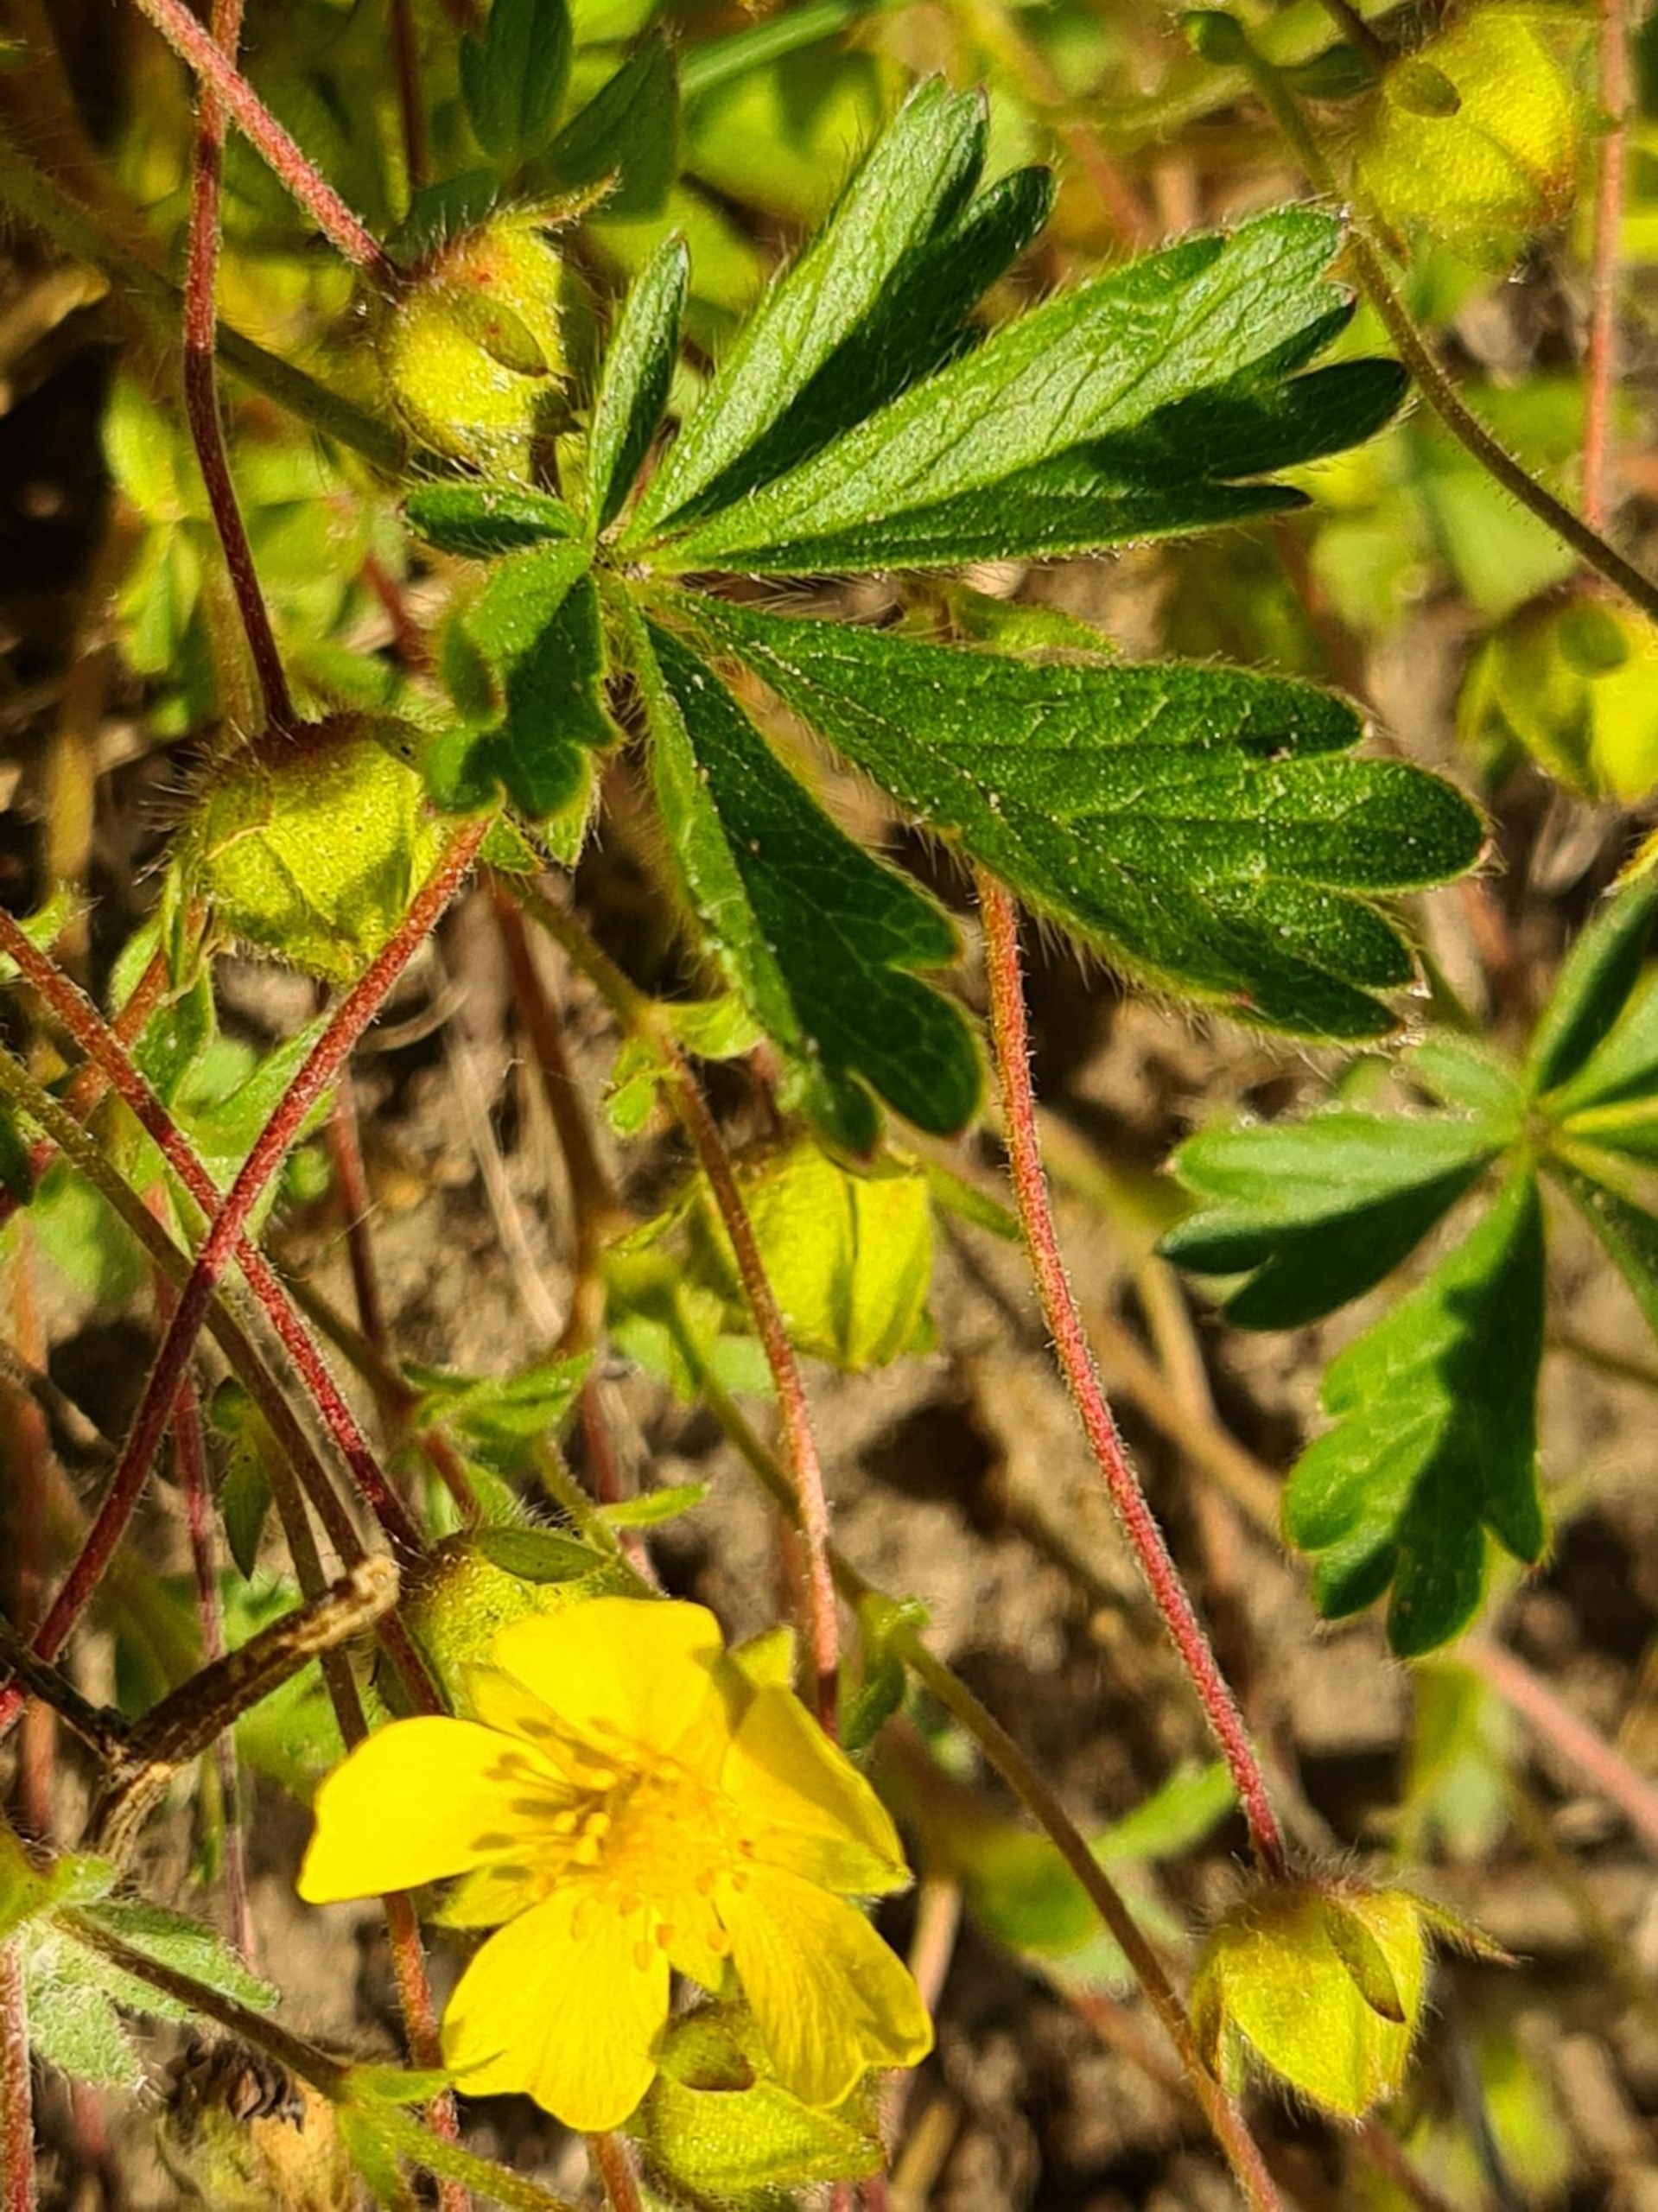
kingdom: Plantae
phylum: Tracheophyta
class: Magnoliopsida
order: Rosales
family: Rosaceae
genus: Potentilla
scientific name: Potentilla verna
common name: Vår-potentil
